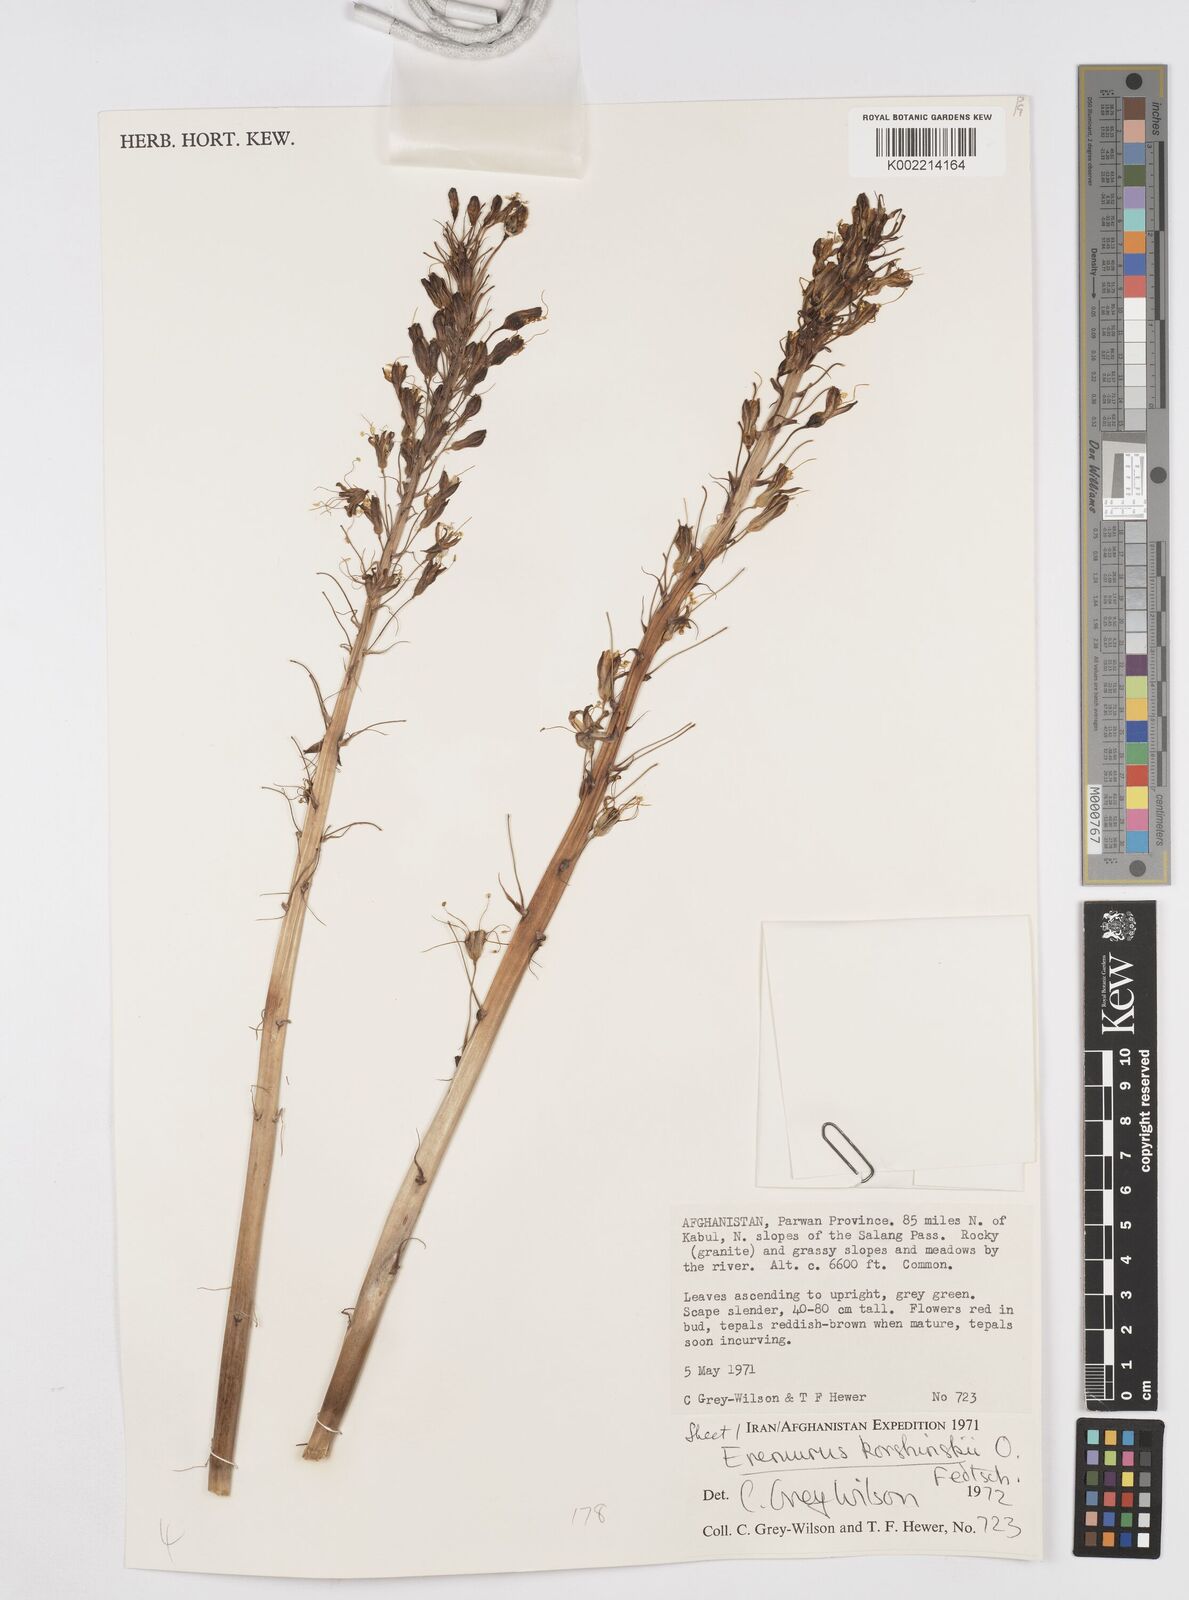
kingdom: Plantae
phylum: Tracheophyta
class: Liliopsida
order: Asparagales
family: Asphodelaceae
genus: Eremurus
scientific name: Eremurus korshinskyi
